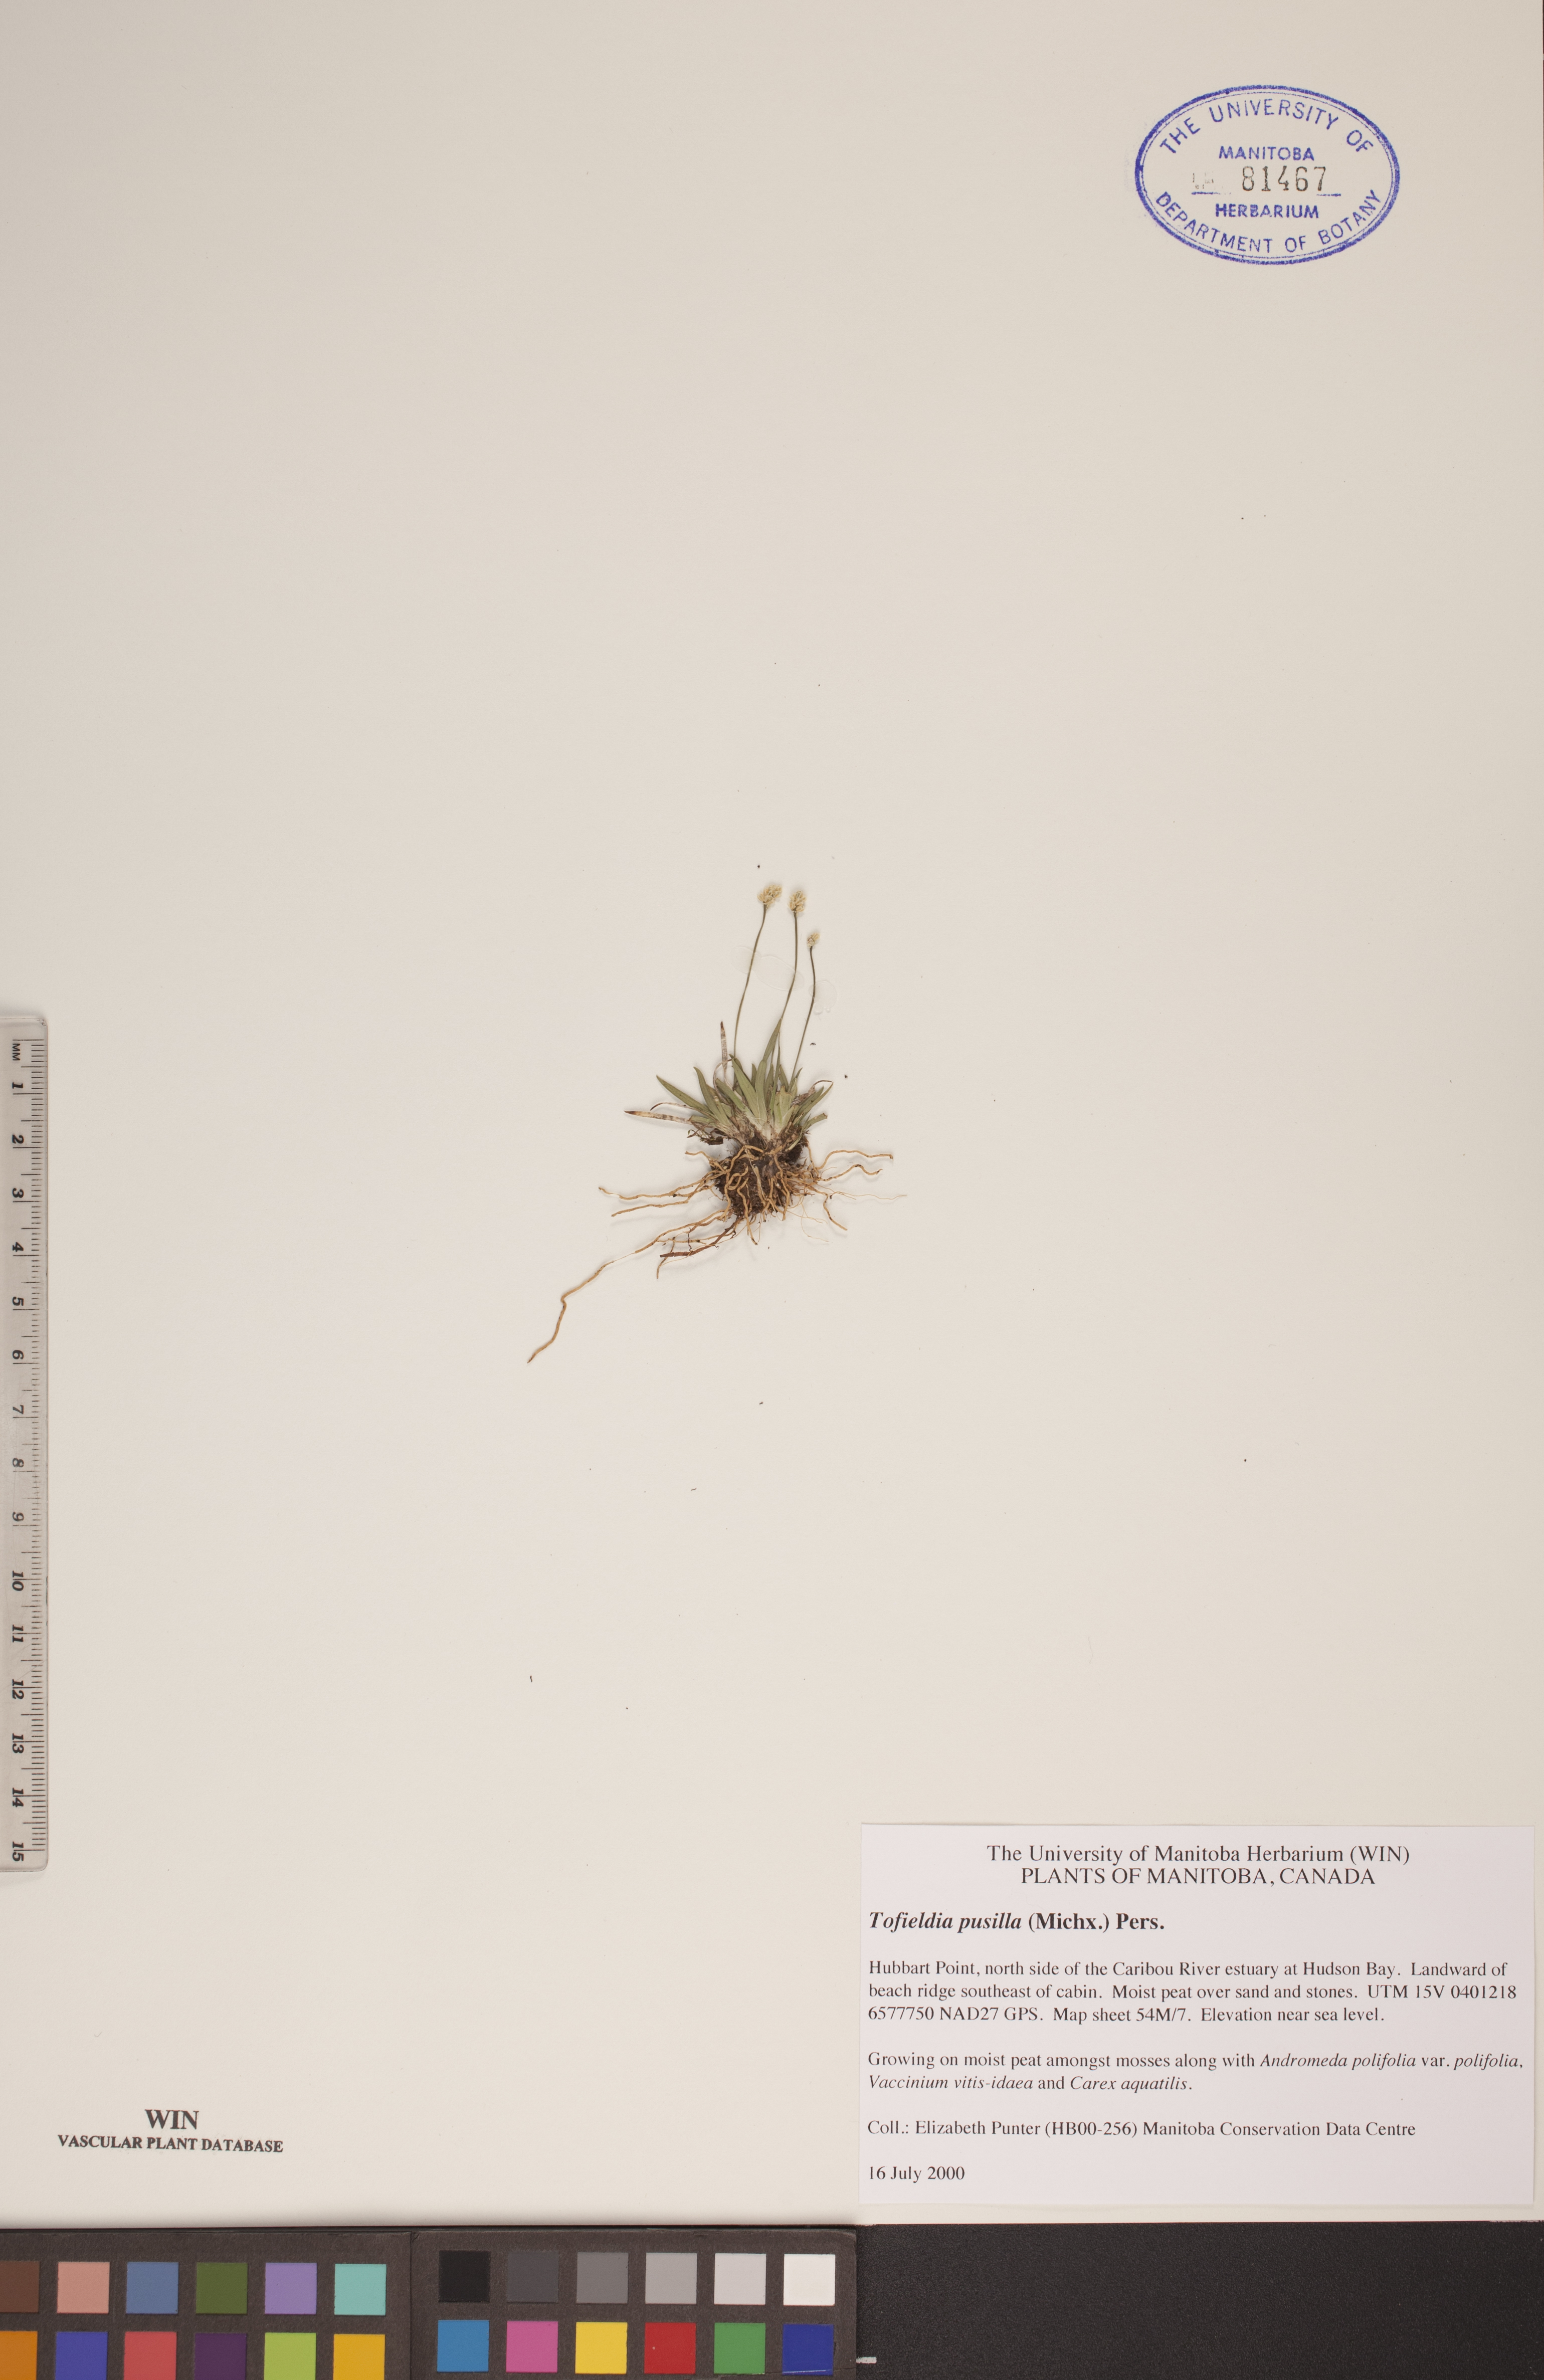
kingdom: Plantae
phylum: Tracheophyta
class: Liliopsida
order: Alismatales
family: Tofieldiaceae
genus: Tofieldia
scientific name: Tofieldia pusilla
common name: Scottish false asphodel
